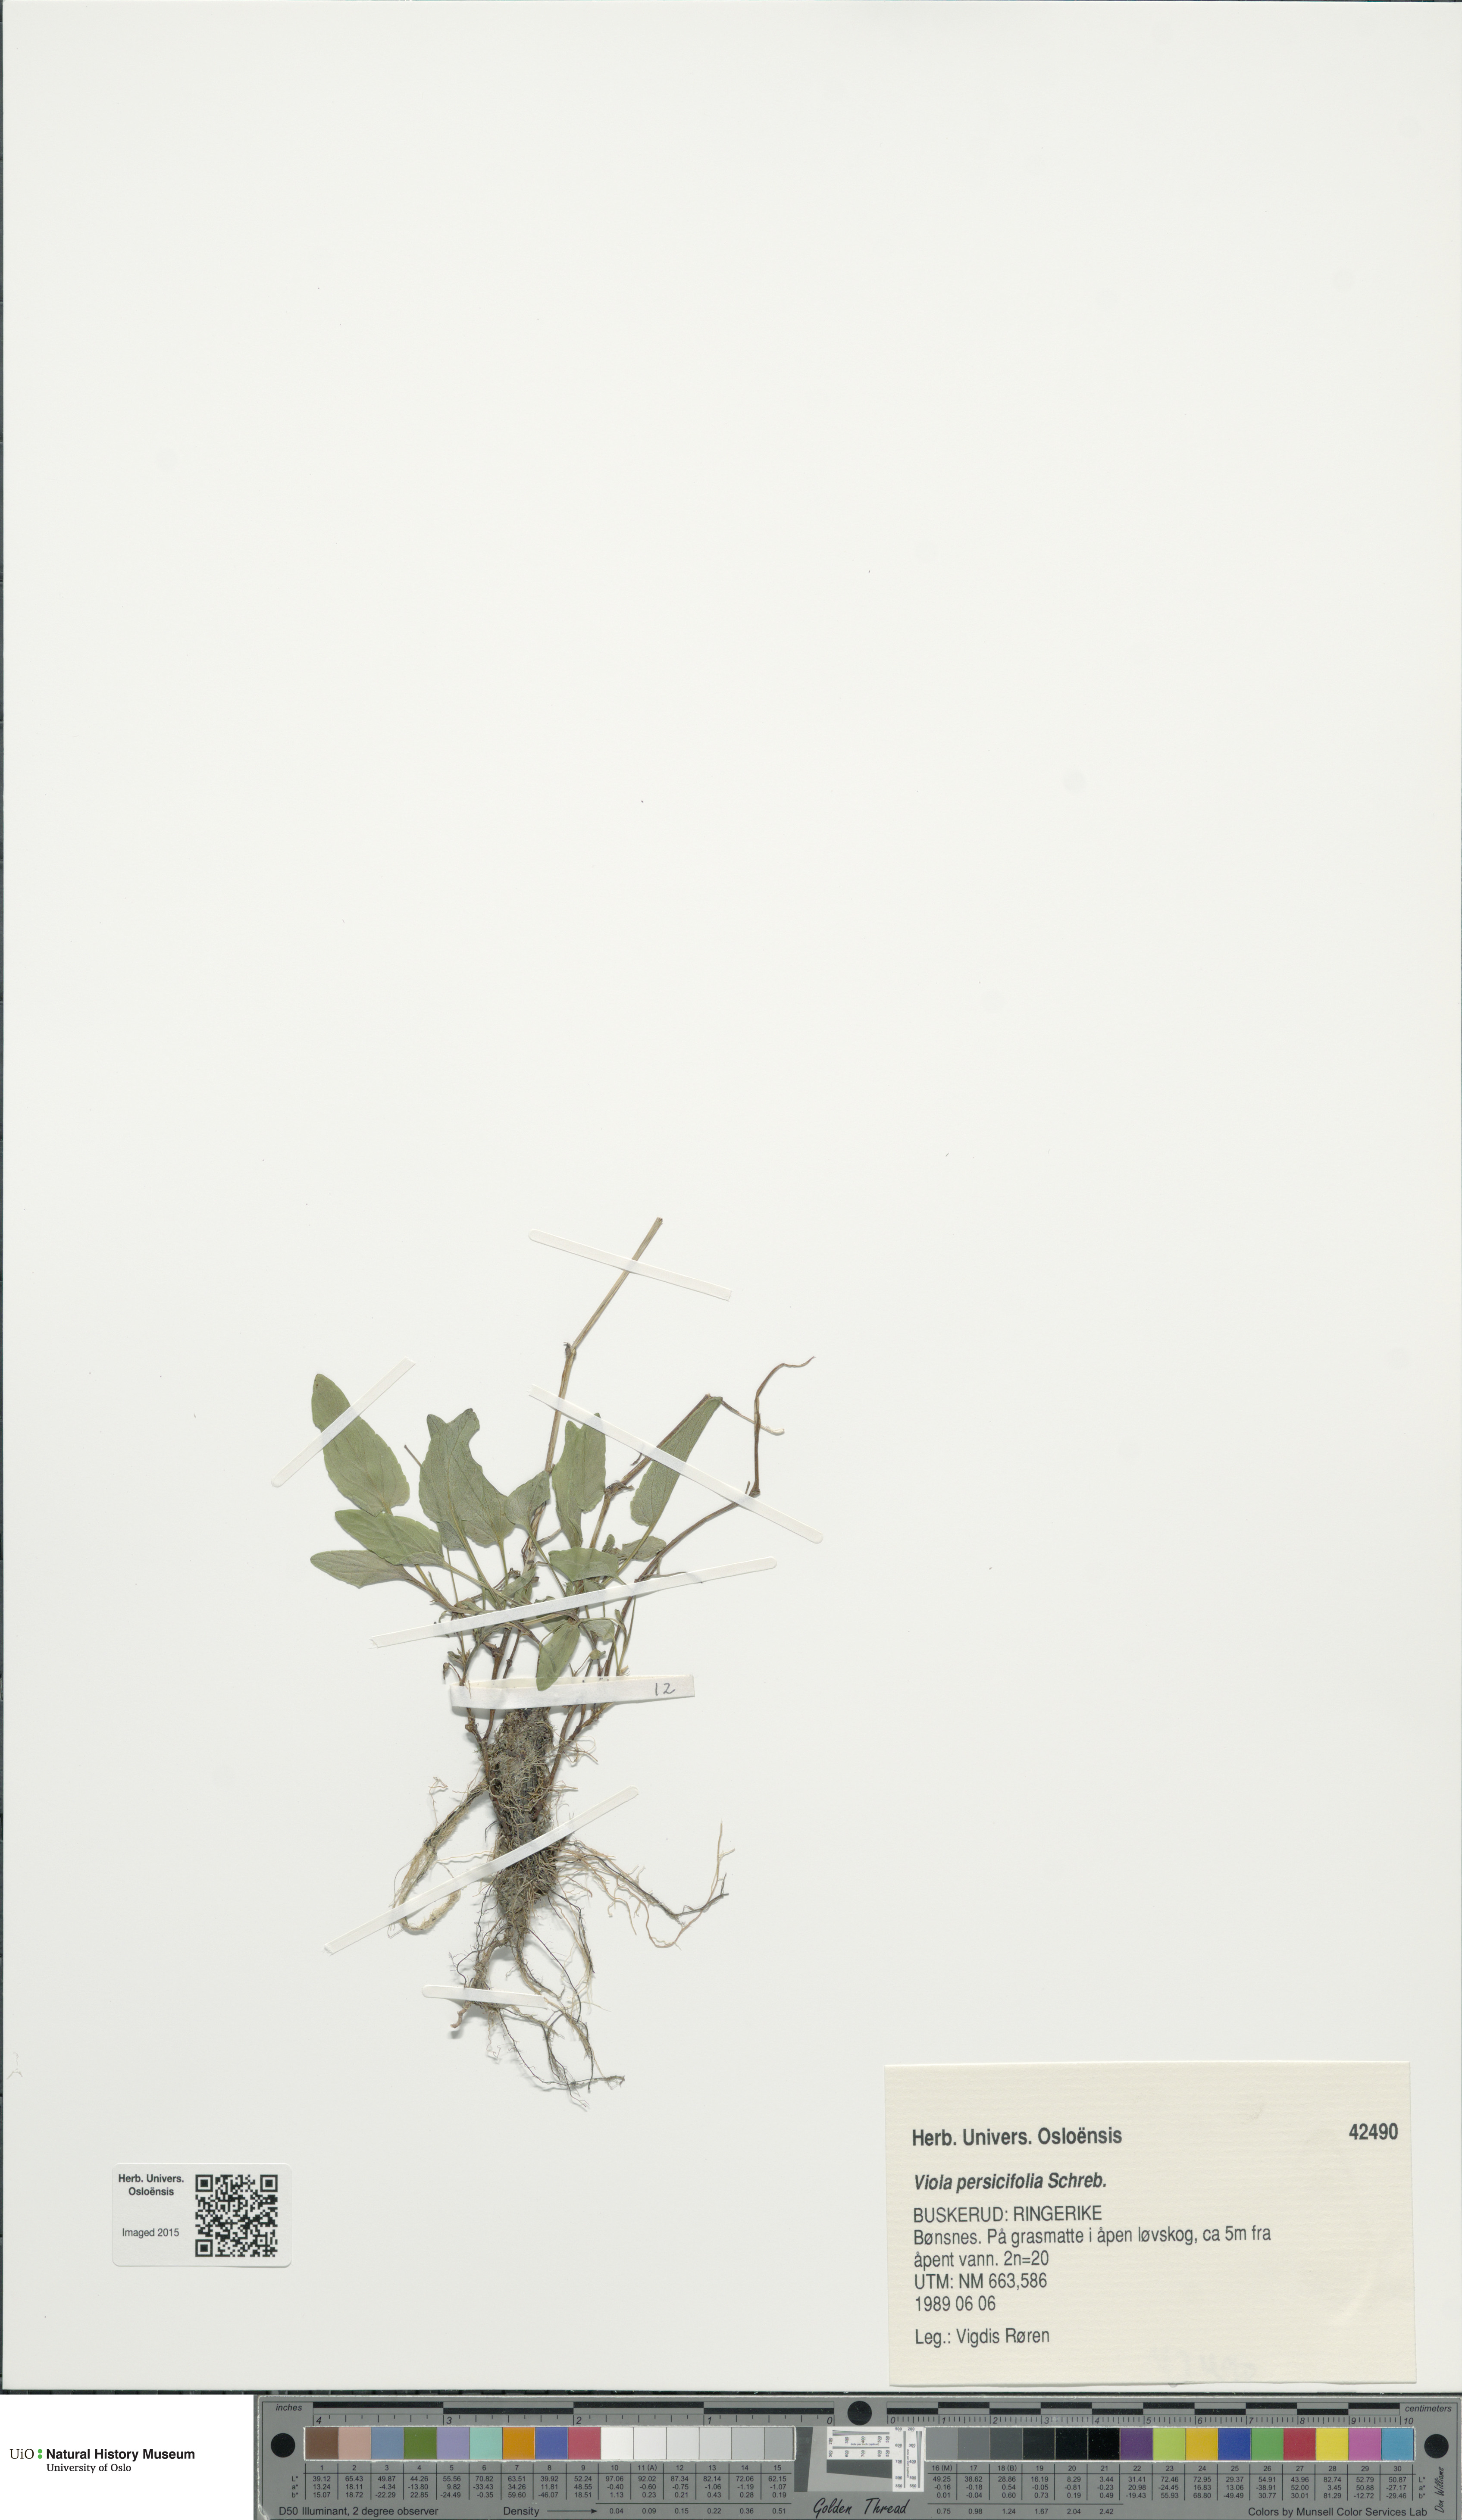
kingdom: Plantae
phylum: Tracheophyta
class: Magnoliopsida
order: Malpighiales
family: Violaceae
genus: Viola
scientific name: Viola stagnina
